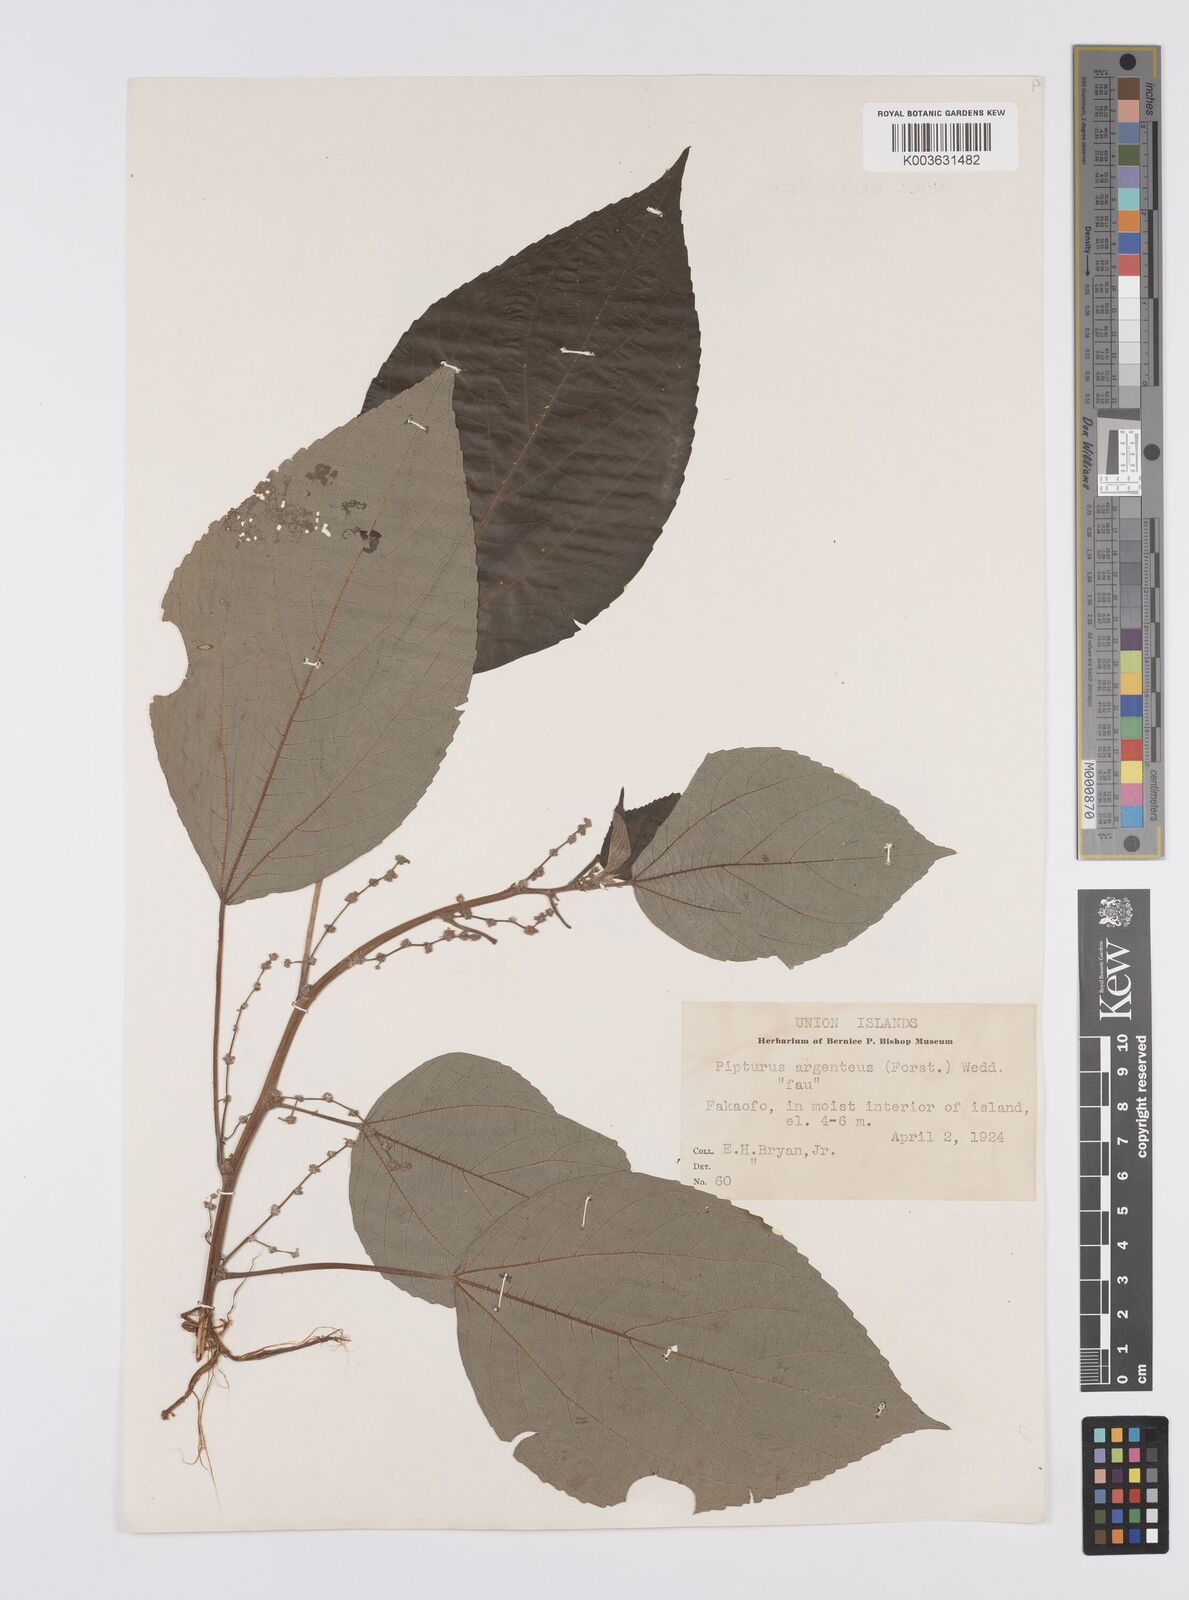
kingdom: Plantae
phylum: Tracheophyta
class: Magnoliopsida
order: Rosales
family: Urticaceae
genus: Pipturus
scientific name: Pipturus argenteus
